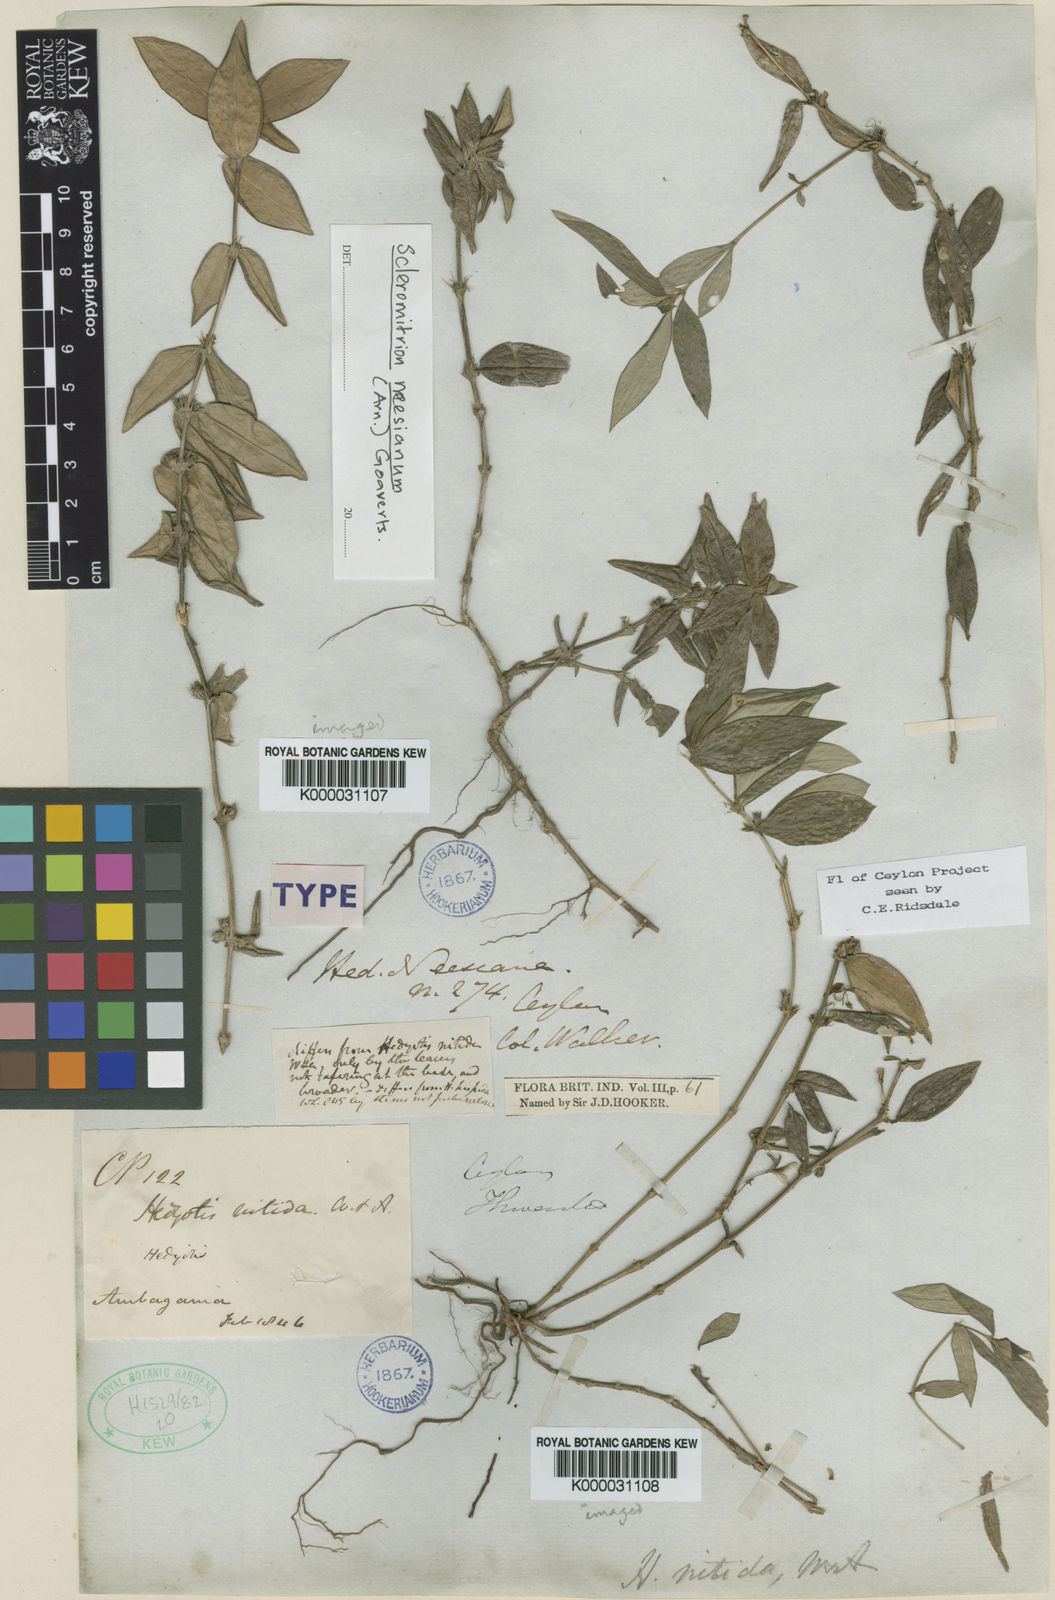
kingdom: Plantae
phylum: Tracheophyta
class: Magnoliopsida
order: Gentianales
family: Rubiaceae
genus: Hedyotis
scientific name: Hedyotis neesiana
